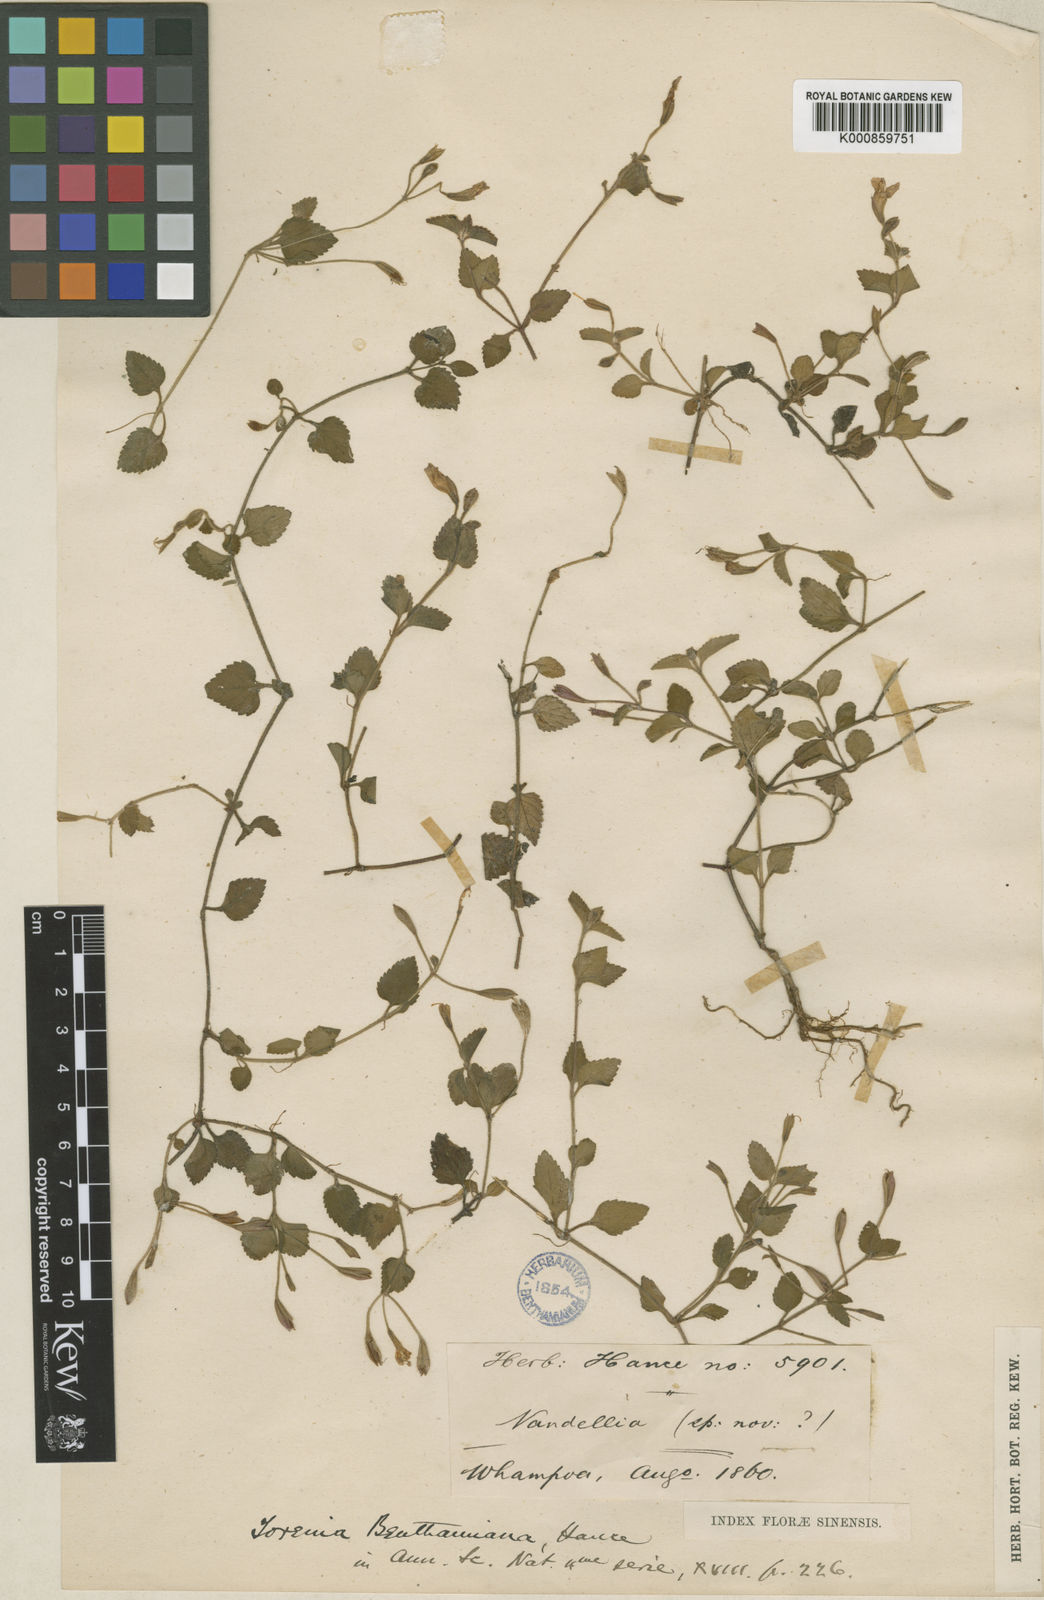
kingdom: Plantae
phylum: Tracheophyta
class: Magnoliopsida
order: Lamiales
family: Linderniaceae
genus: Torenia
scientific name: Torenia benthamiana
